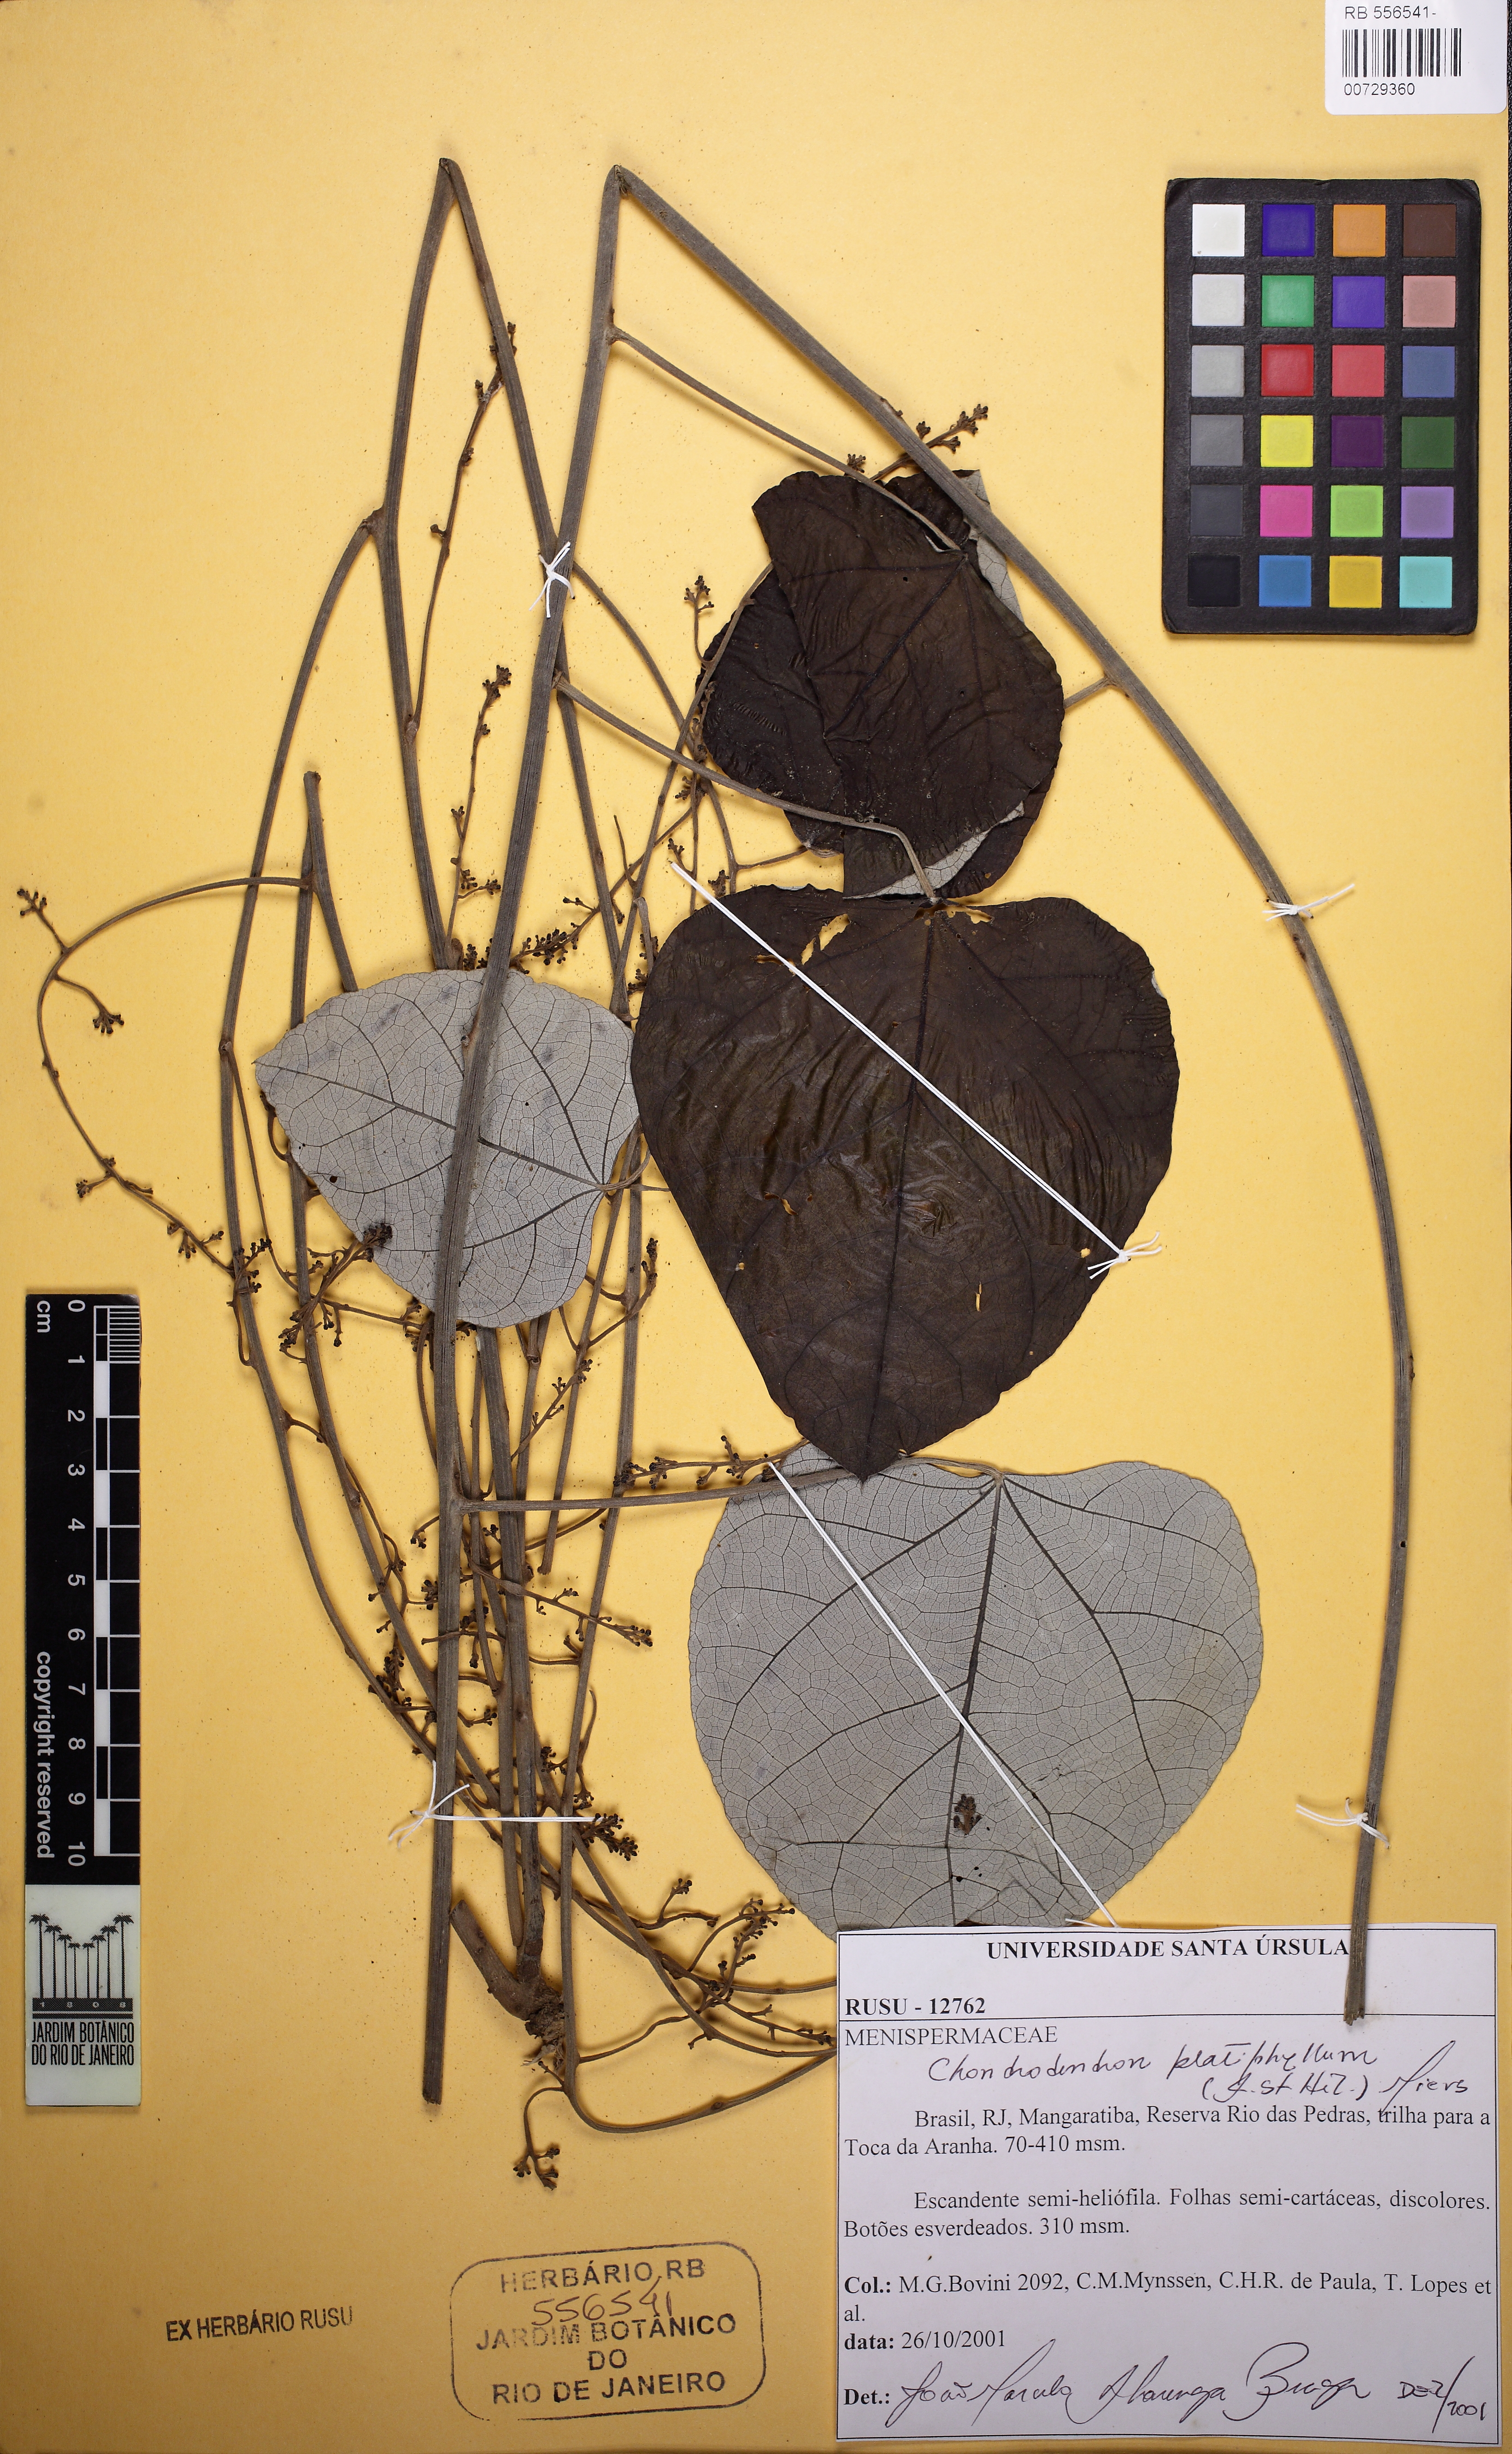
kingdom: Plantae
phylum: Tracheophyta
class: Magnoliopsida
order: Ranunculales
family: Menispermaceae
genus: Chondrodendron
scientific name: Chondrodendron platyphyllum
